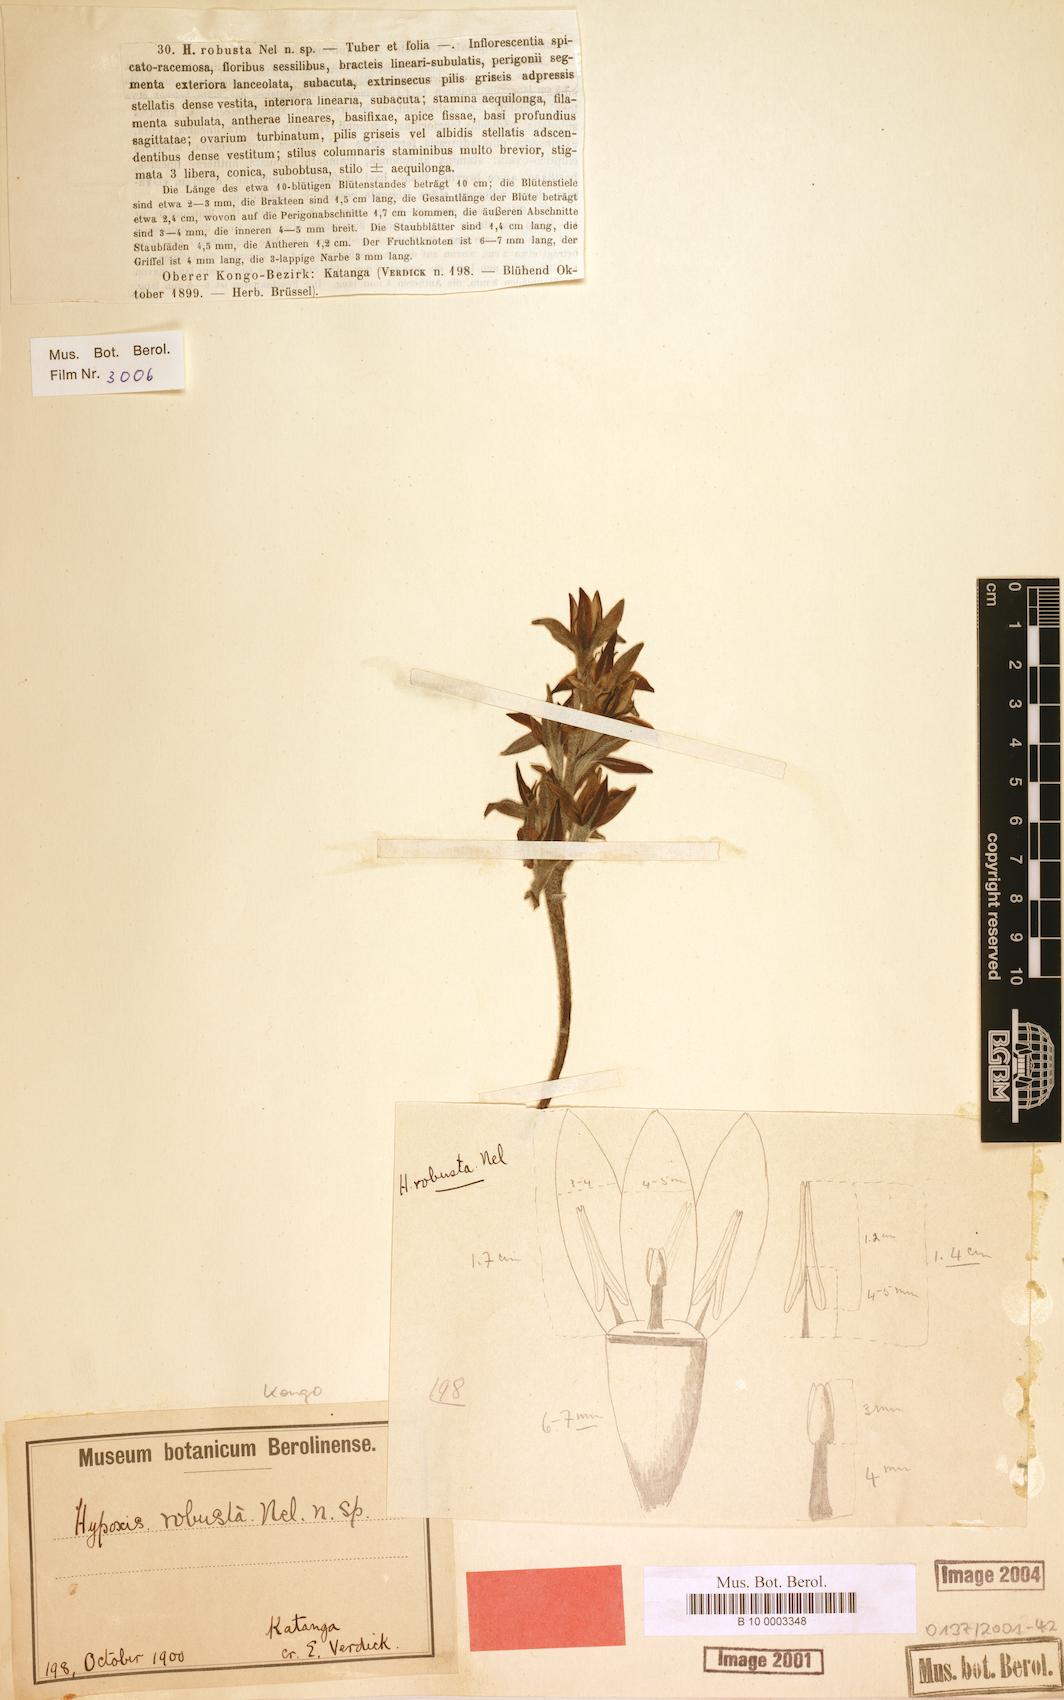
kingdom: Plantae
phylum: Tracheophyta
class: Liliopsida
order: Asparagales
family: Hypoxidaceae
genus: Hypoxis
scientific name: Hypoxis robusta
